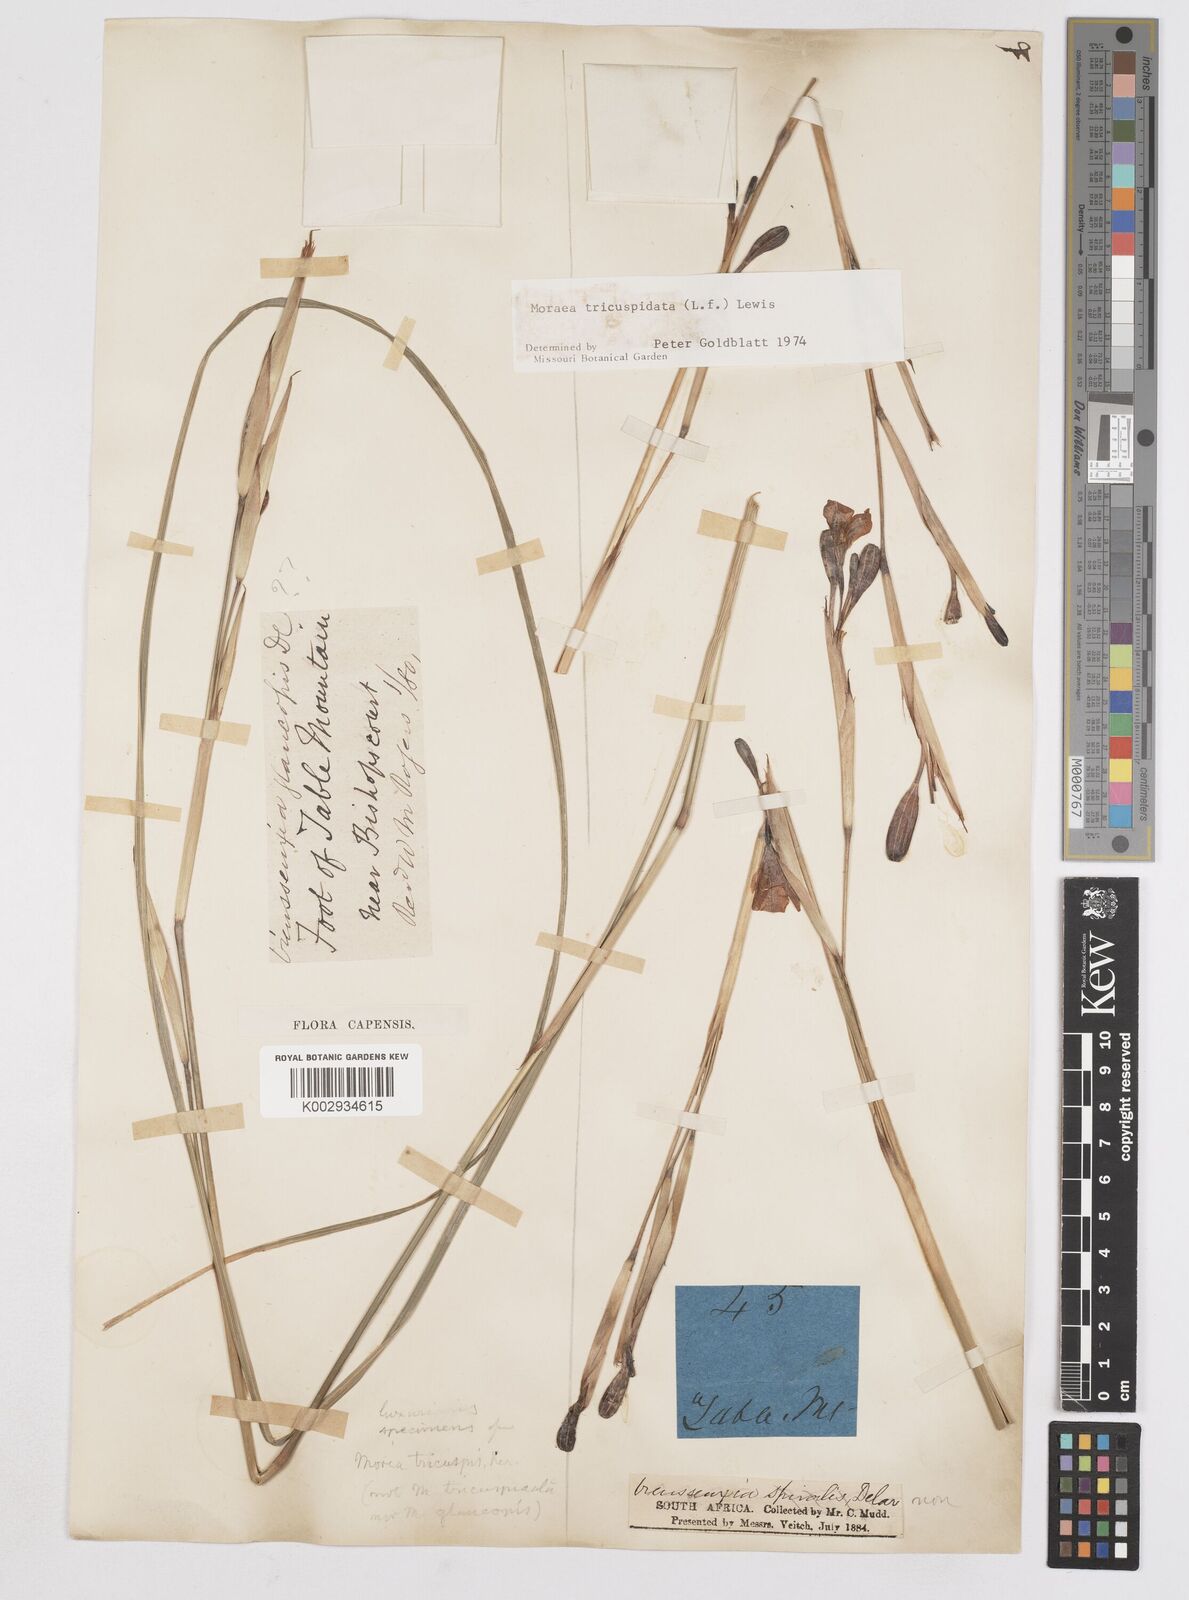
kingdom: Plantae
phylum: Tracheophyta
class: Liliopsida
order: Asparagales
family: Iridaceae
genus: Moraea
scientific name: Moraea tricuspidata
